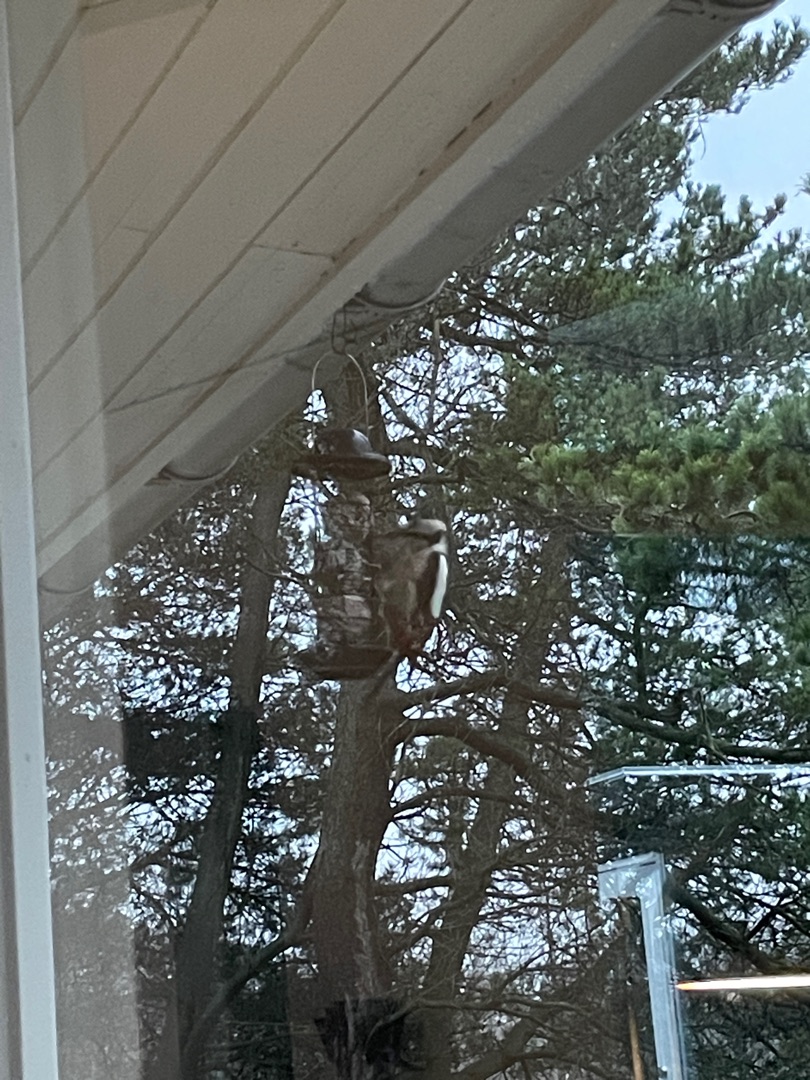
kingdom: Animalia
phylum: Chordata
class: Aves
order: Piciformes
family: Picidae
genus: Dendrocopos
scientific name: Dendrocopos major
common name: Stor flagspætte
